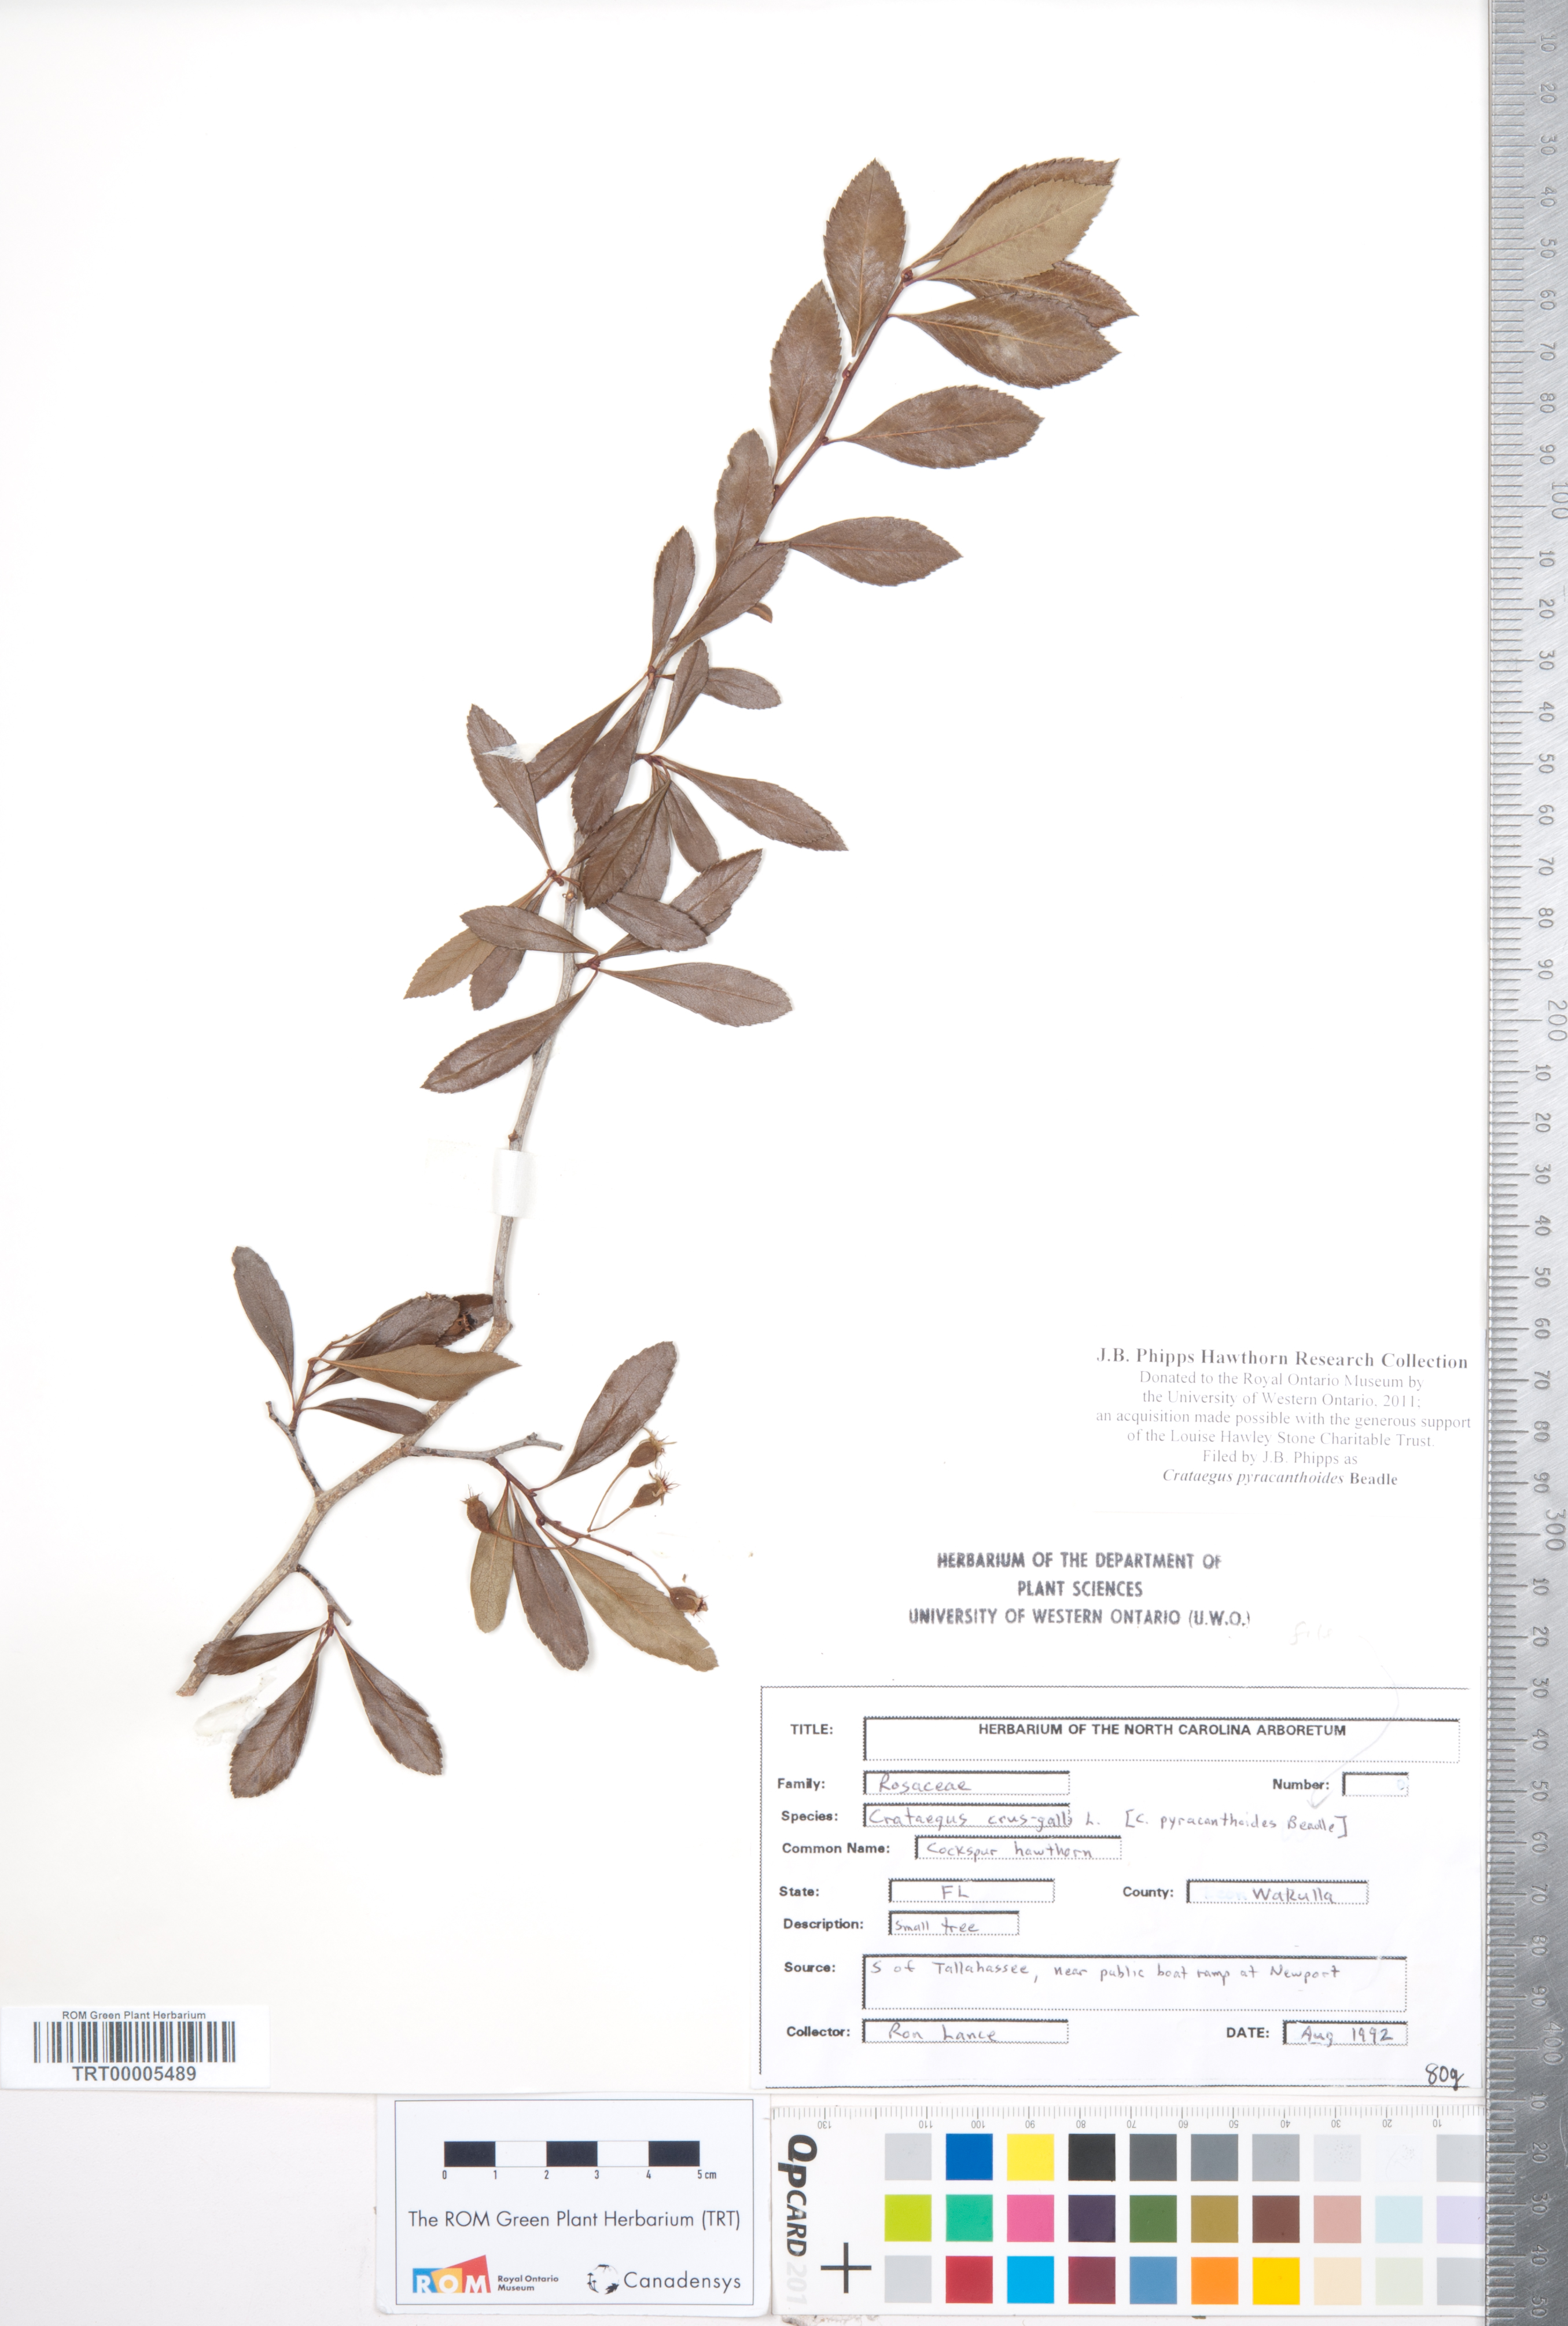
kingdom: Plantae
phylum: Tracheophyta
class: Magnoliopsida
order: Rosales
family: Rosaceae
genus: Crataegus
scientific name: Crataegus crus-galli
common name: Cockspurthorn
